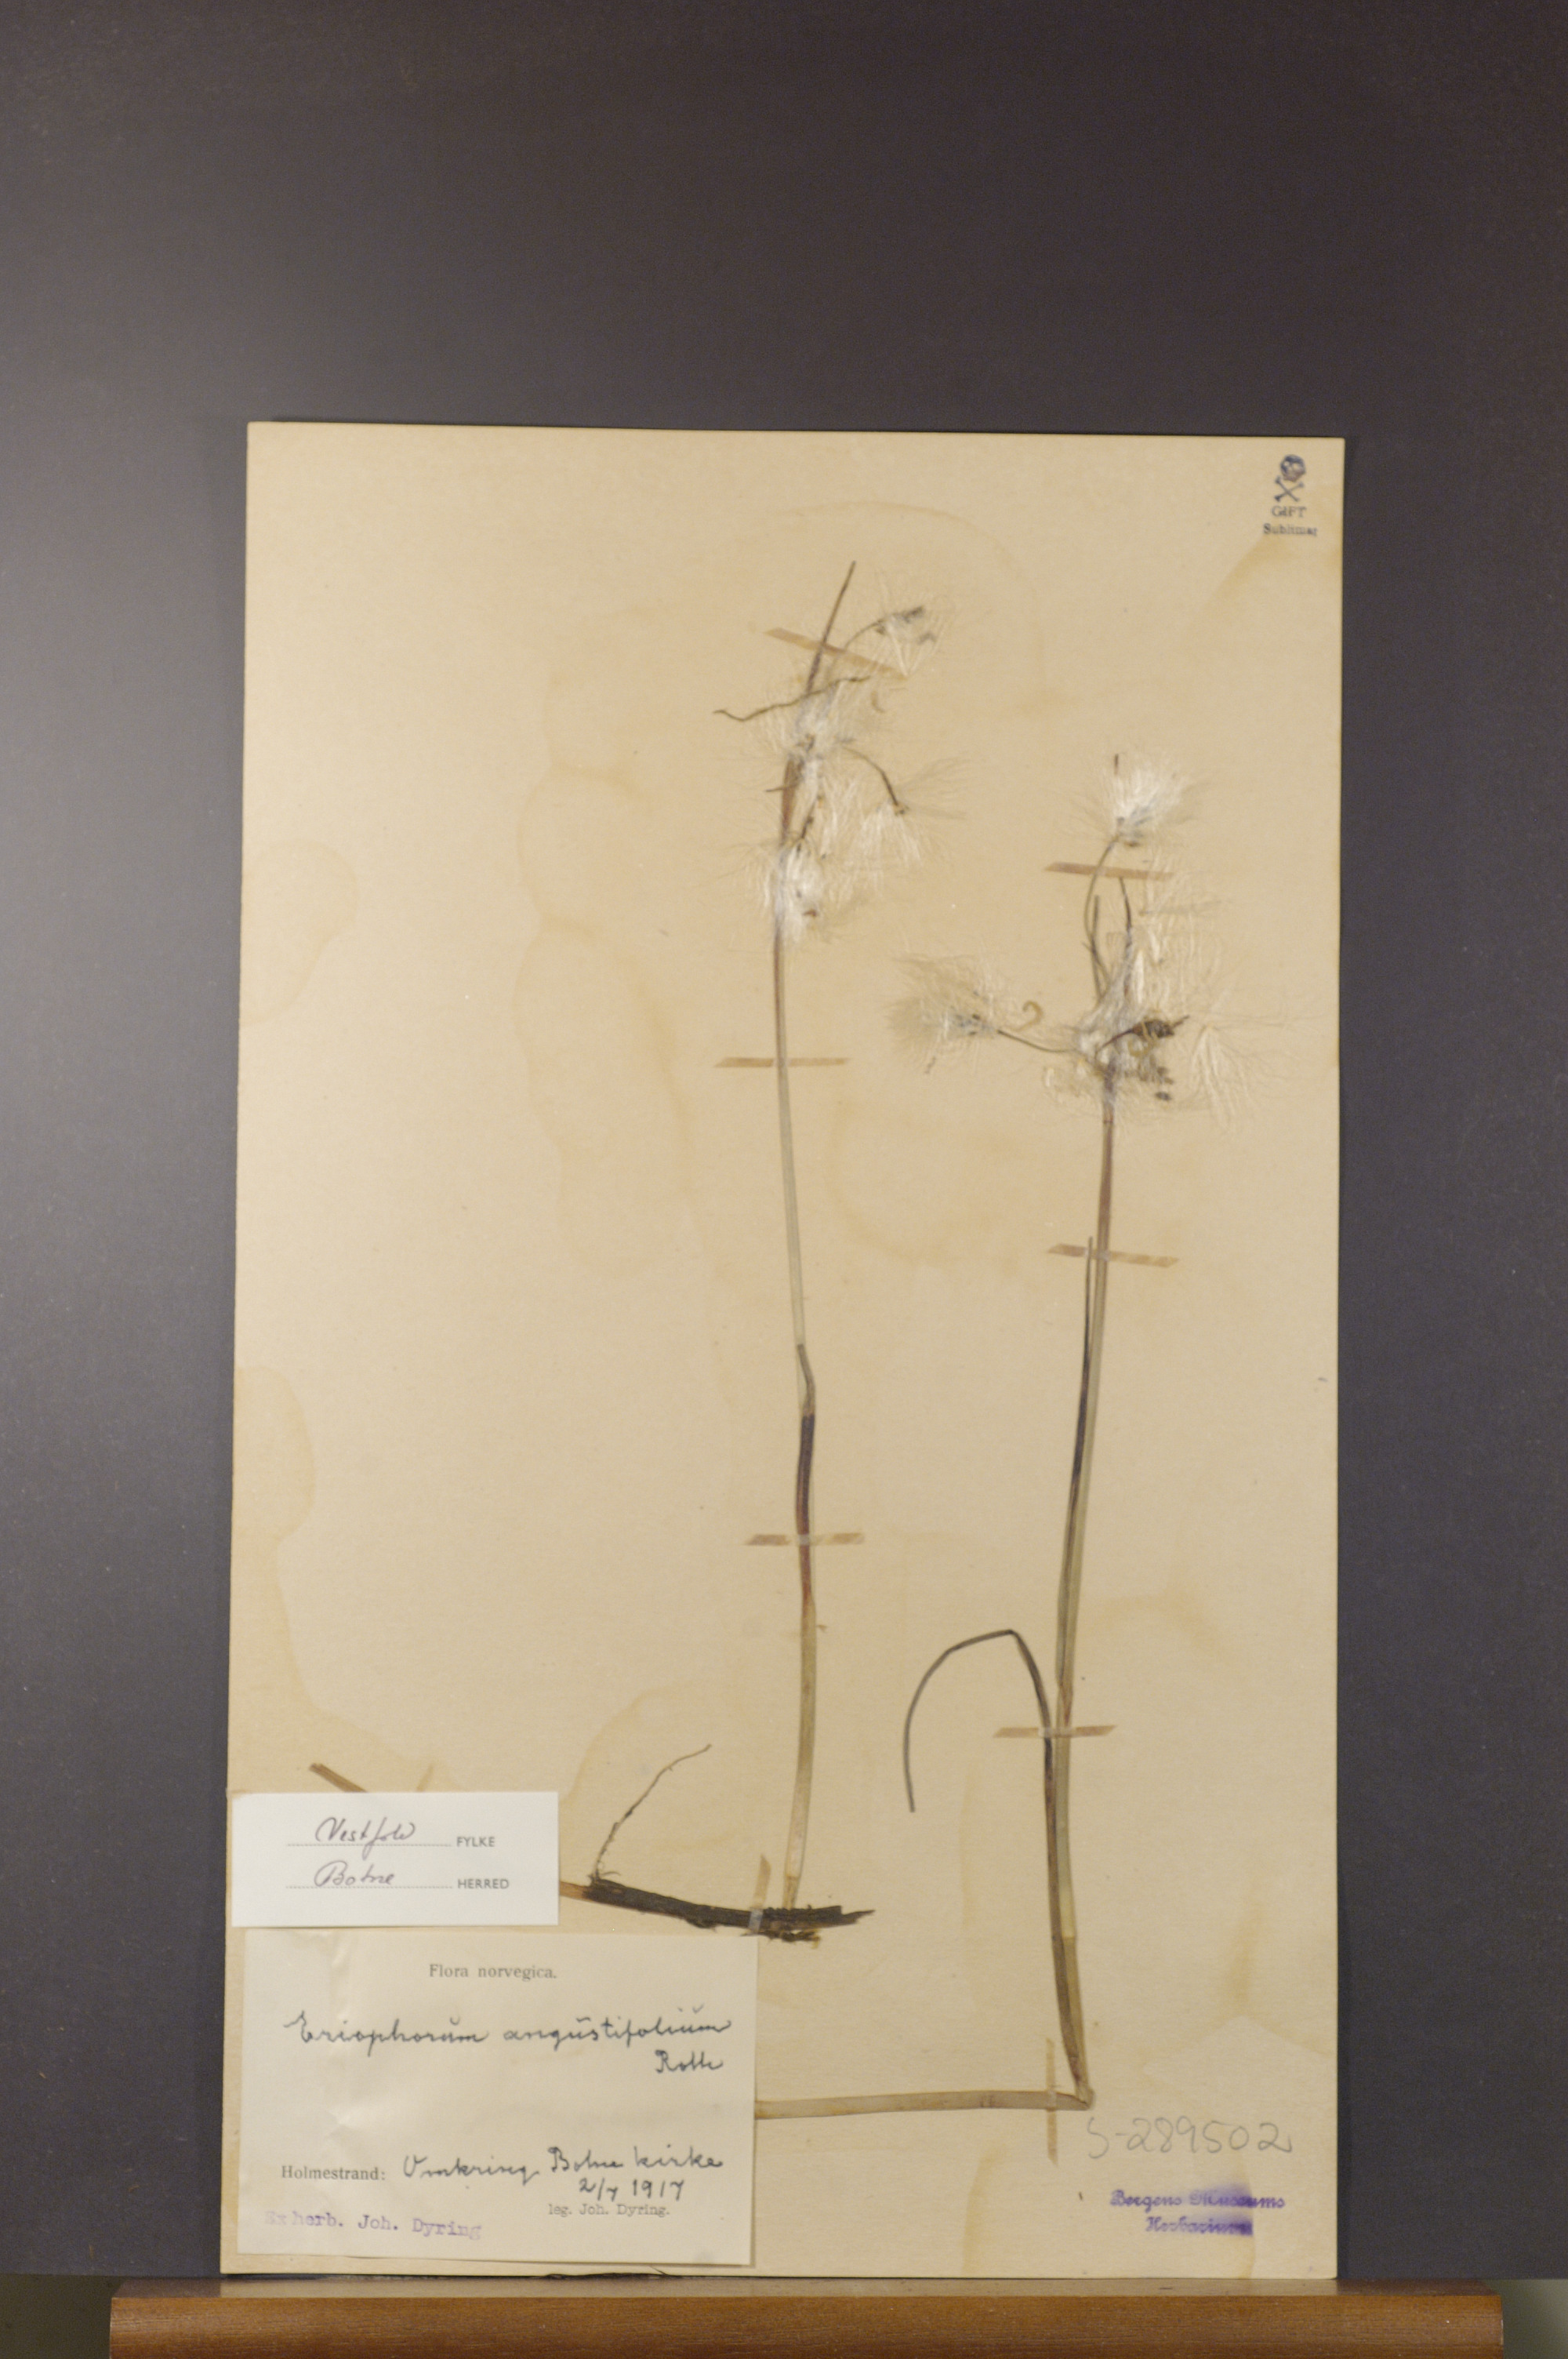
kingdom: Plantae
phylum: Tracheophyta
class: Liliopsida
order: Poales
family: Cyperaceae
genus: Eriophorum
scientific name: Eriophorum angustifolium
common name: Common cottongrass
